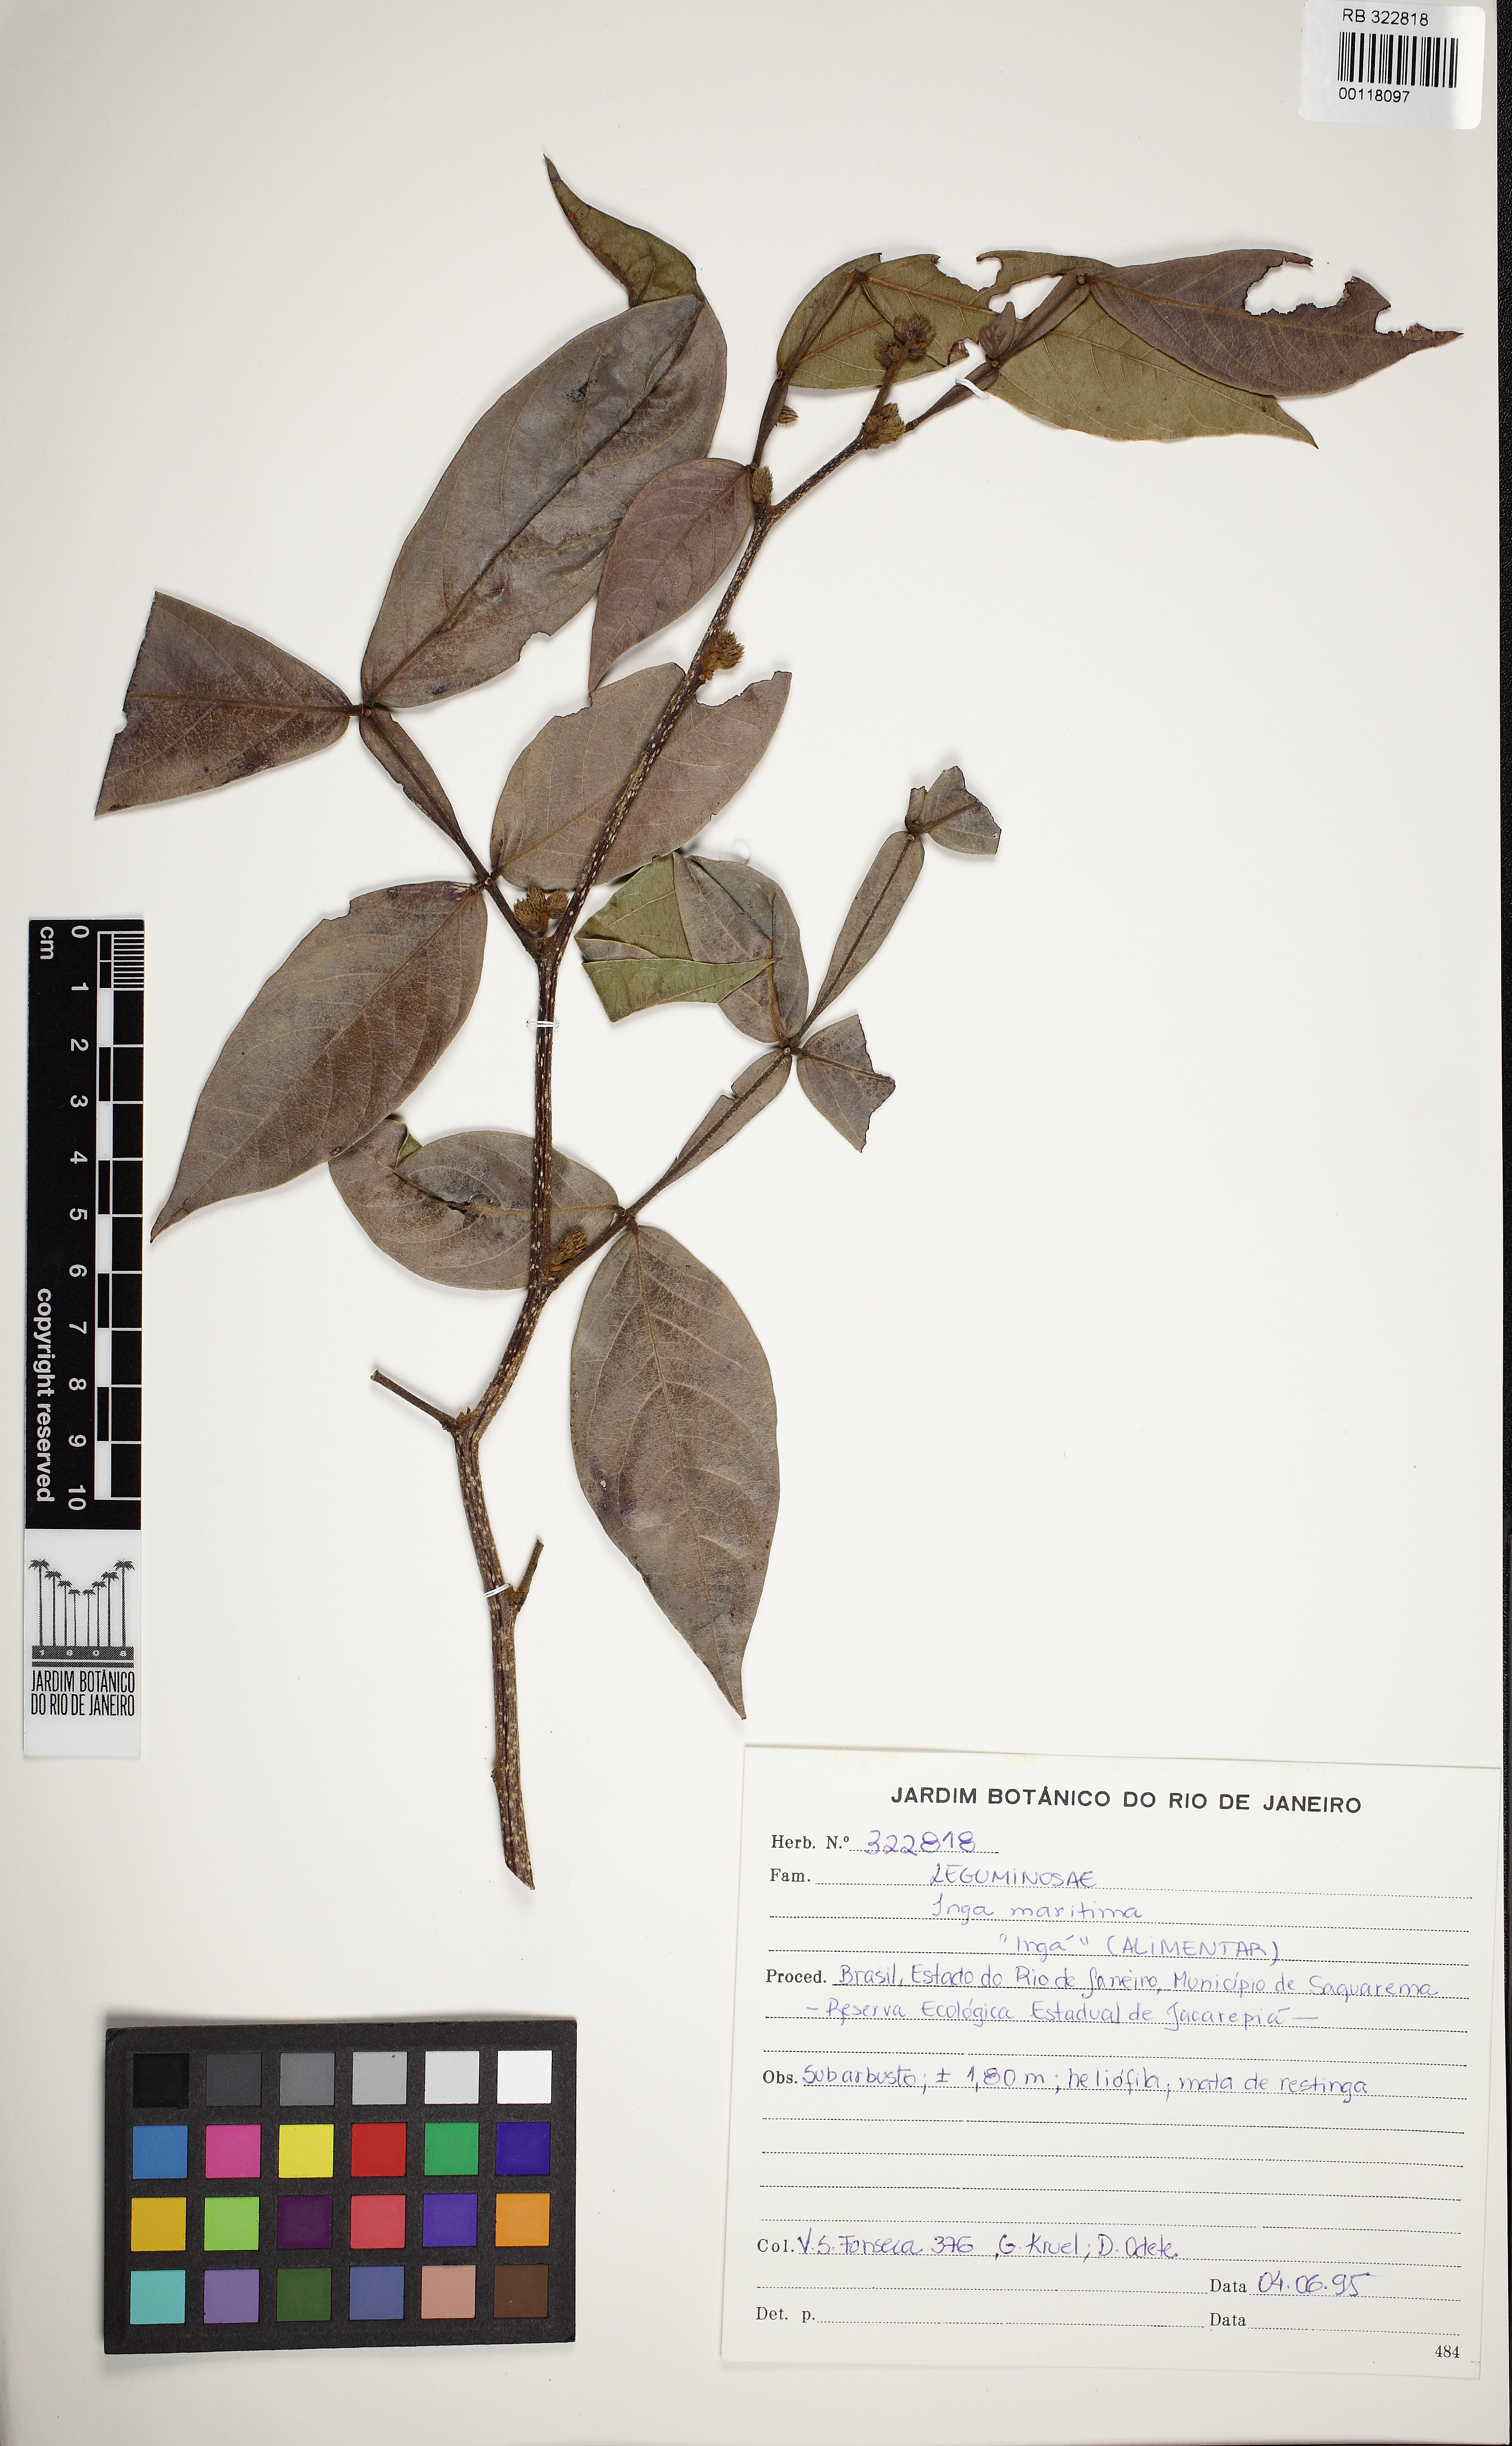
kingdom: Plantae
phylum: Tracheophyta
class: Magnoliopsida
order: Fabales
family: Fabaceae
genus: Inga
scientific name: Inga maritima
